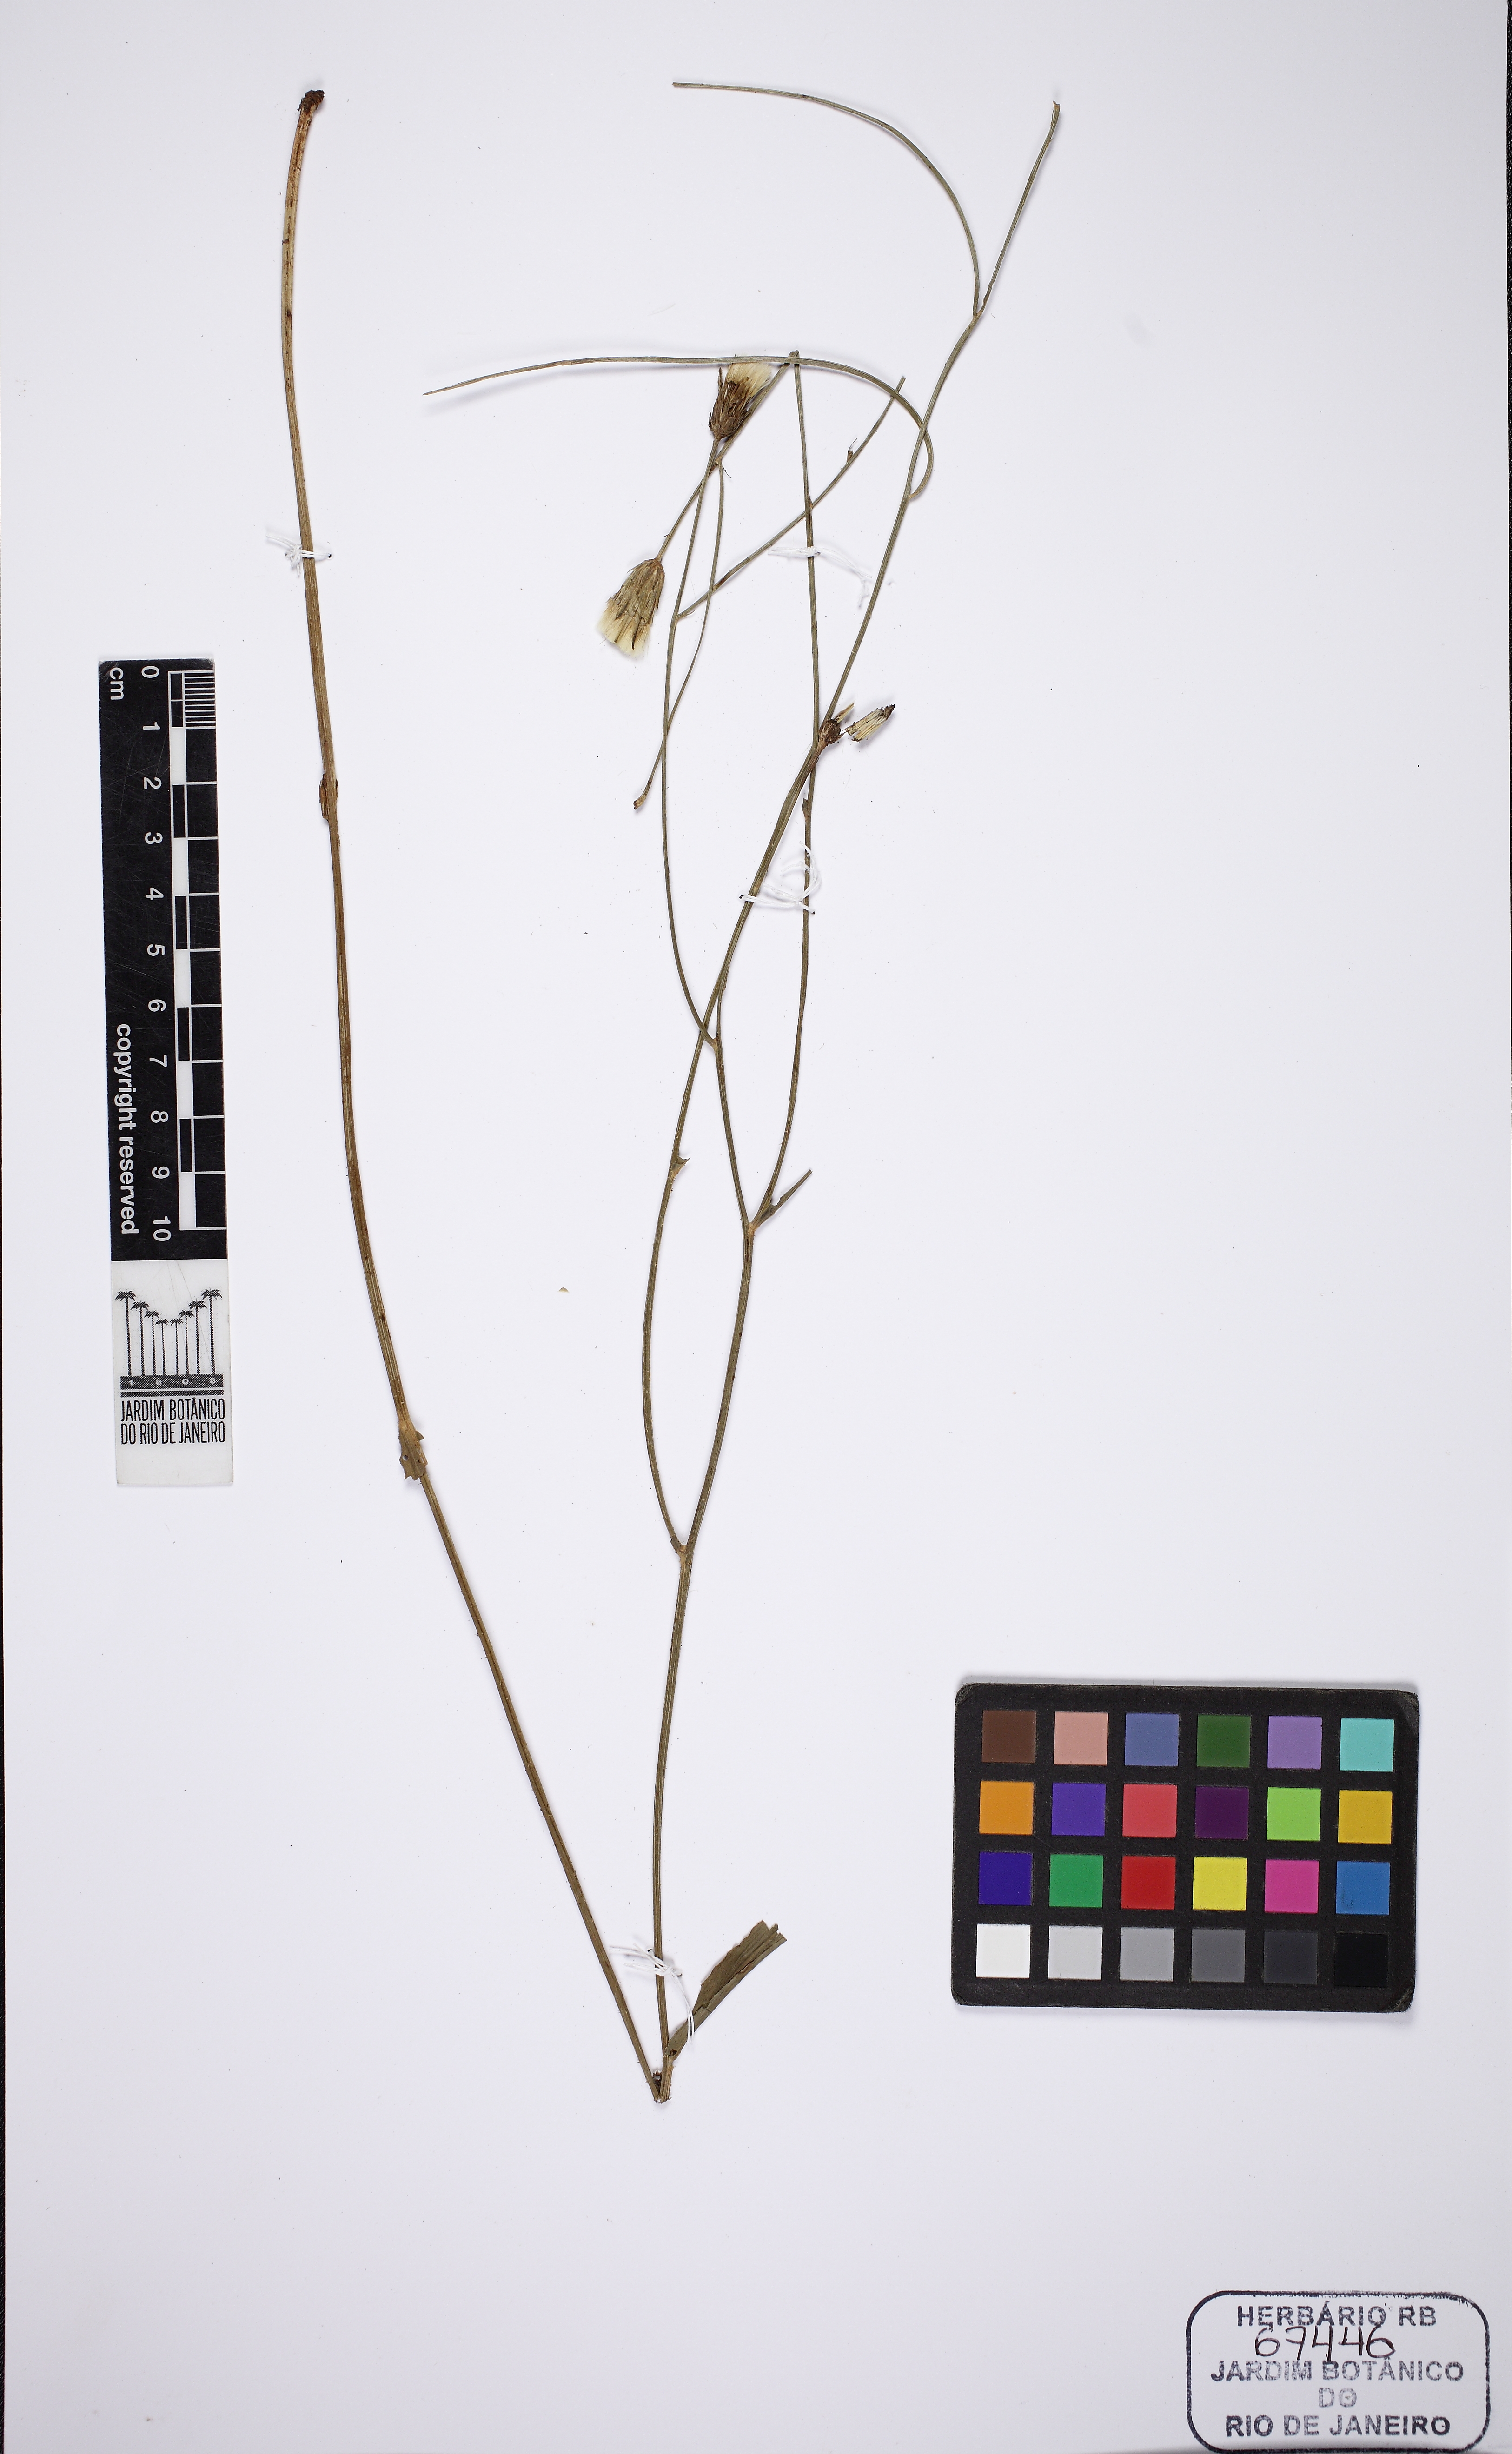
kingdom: Plantae
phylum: Tracheophyta
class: Magnoliopsida
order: Asterales
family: Asteraceae
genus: Hypochaeris
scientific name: Hypochaeris chillensis
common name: Brazilian cat's ear
